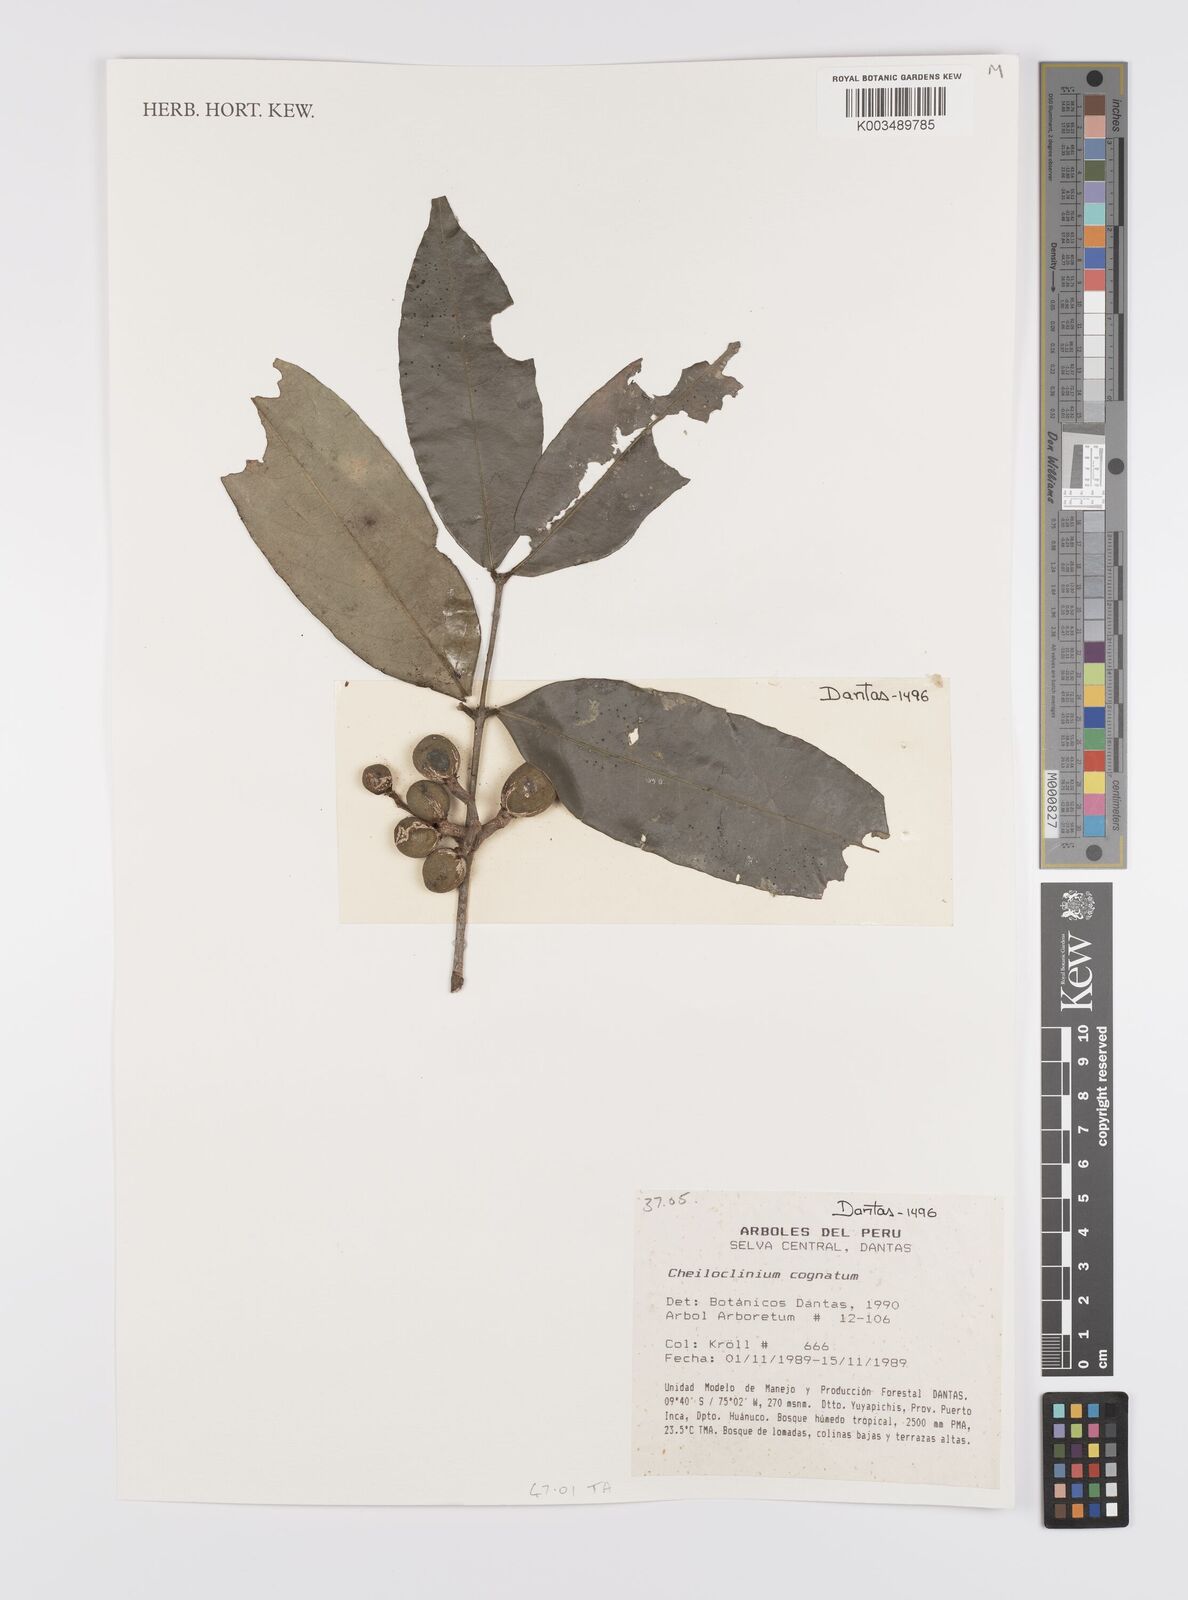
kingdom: Plantae
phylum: Tracheophyta
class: Magnoliopsida
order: Celastrales
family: Celastraceae
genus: Cheiloclinium
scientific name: Cheiloclinium cognatum
